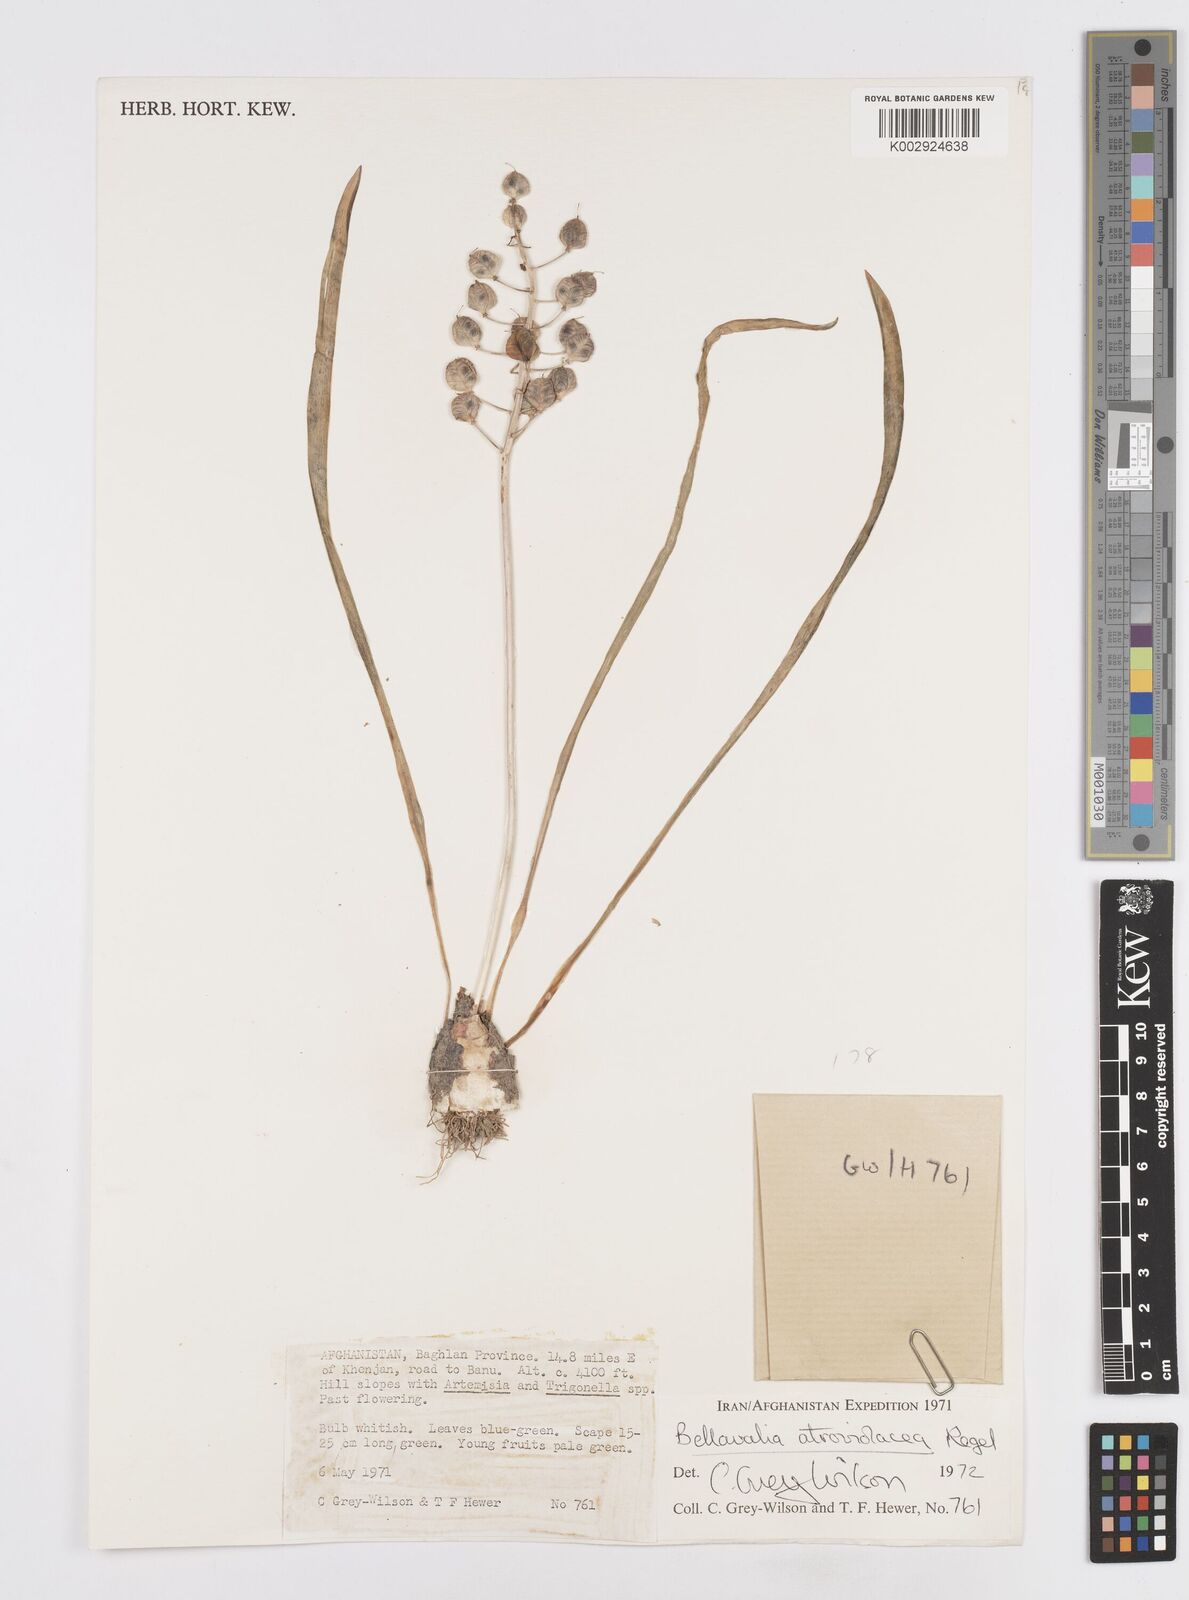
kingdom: Plantae
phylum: Tracheophyta
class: Liliopsida
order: Asparagales
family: Asparagaceae
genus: Bellevalia
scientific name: Bellevalia turkestanica
